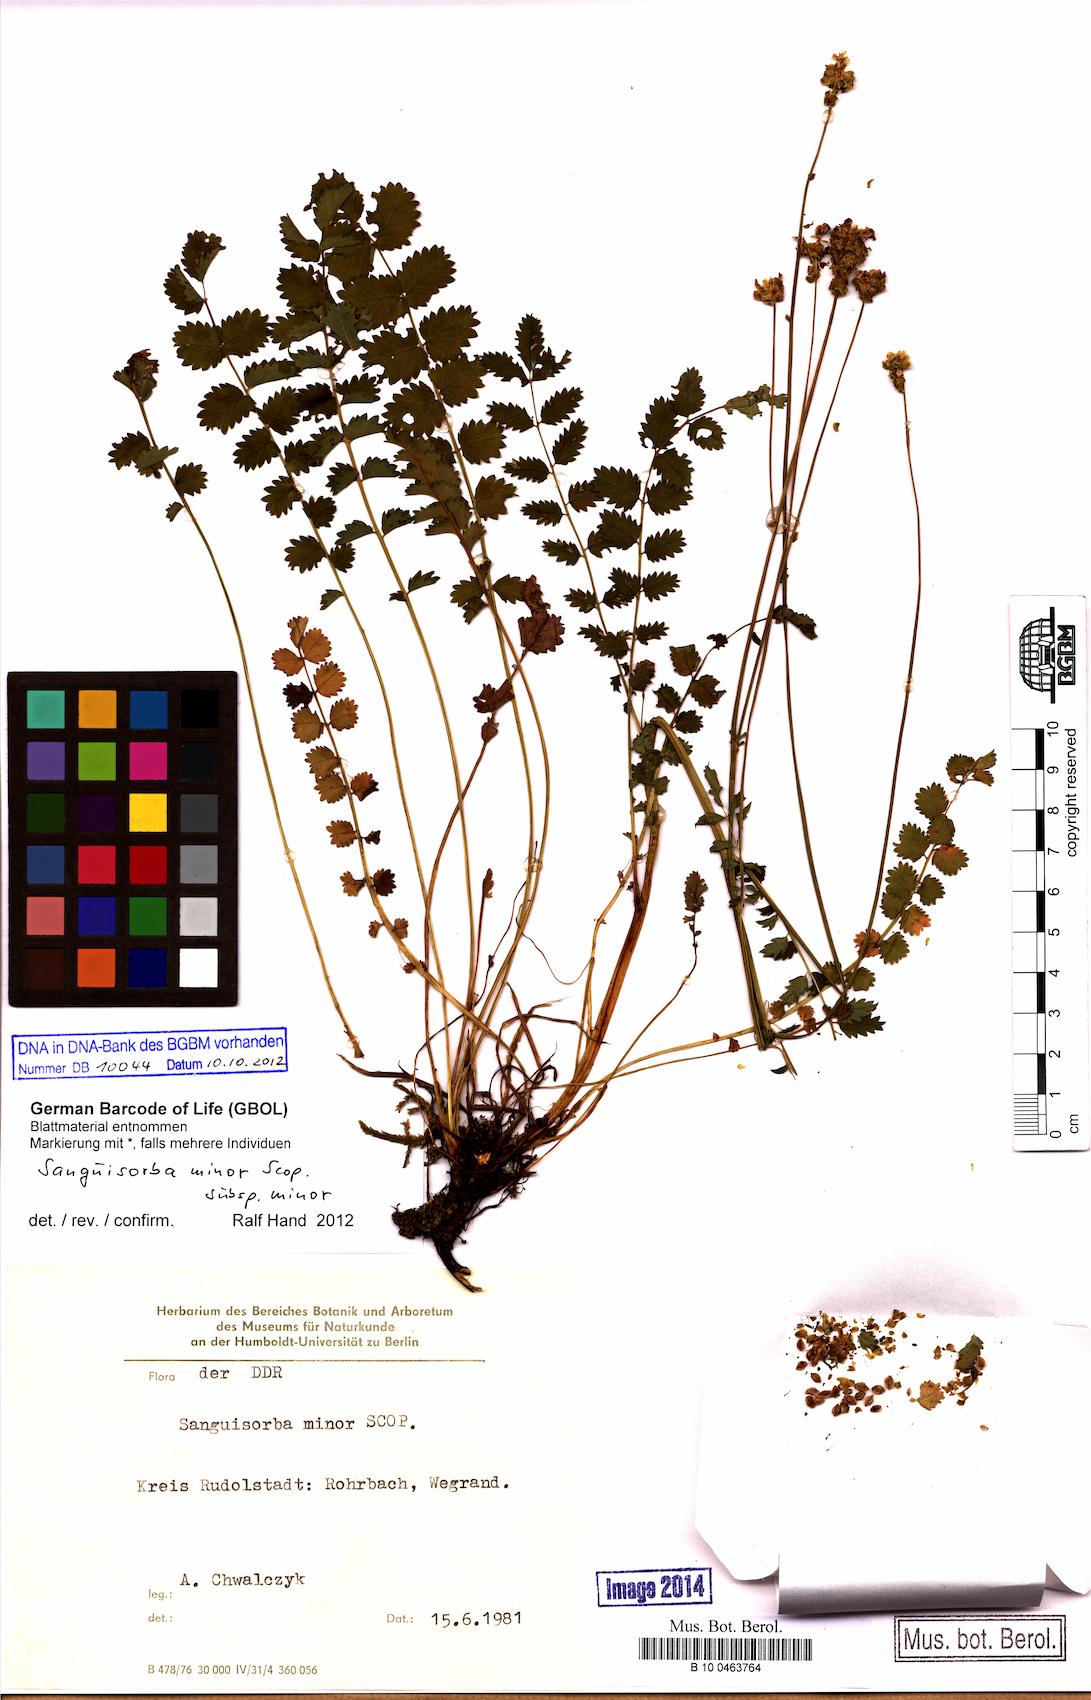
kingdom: Plantae
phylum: Tracheophyta
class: Magnoliopsida
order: Rosales
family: Rosaceae
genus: Poterium
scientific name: Poterium sanguisorba
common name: Salad burnet
